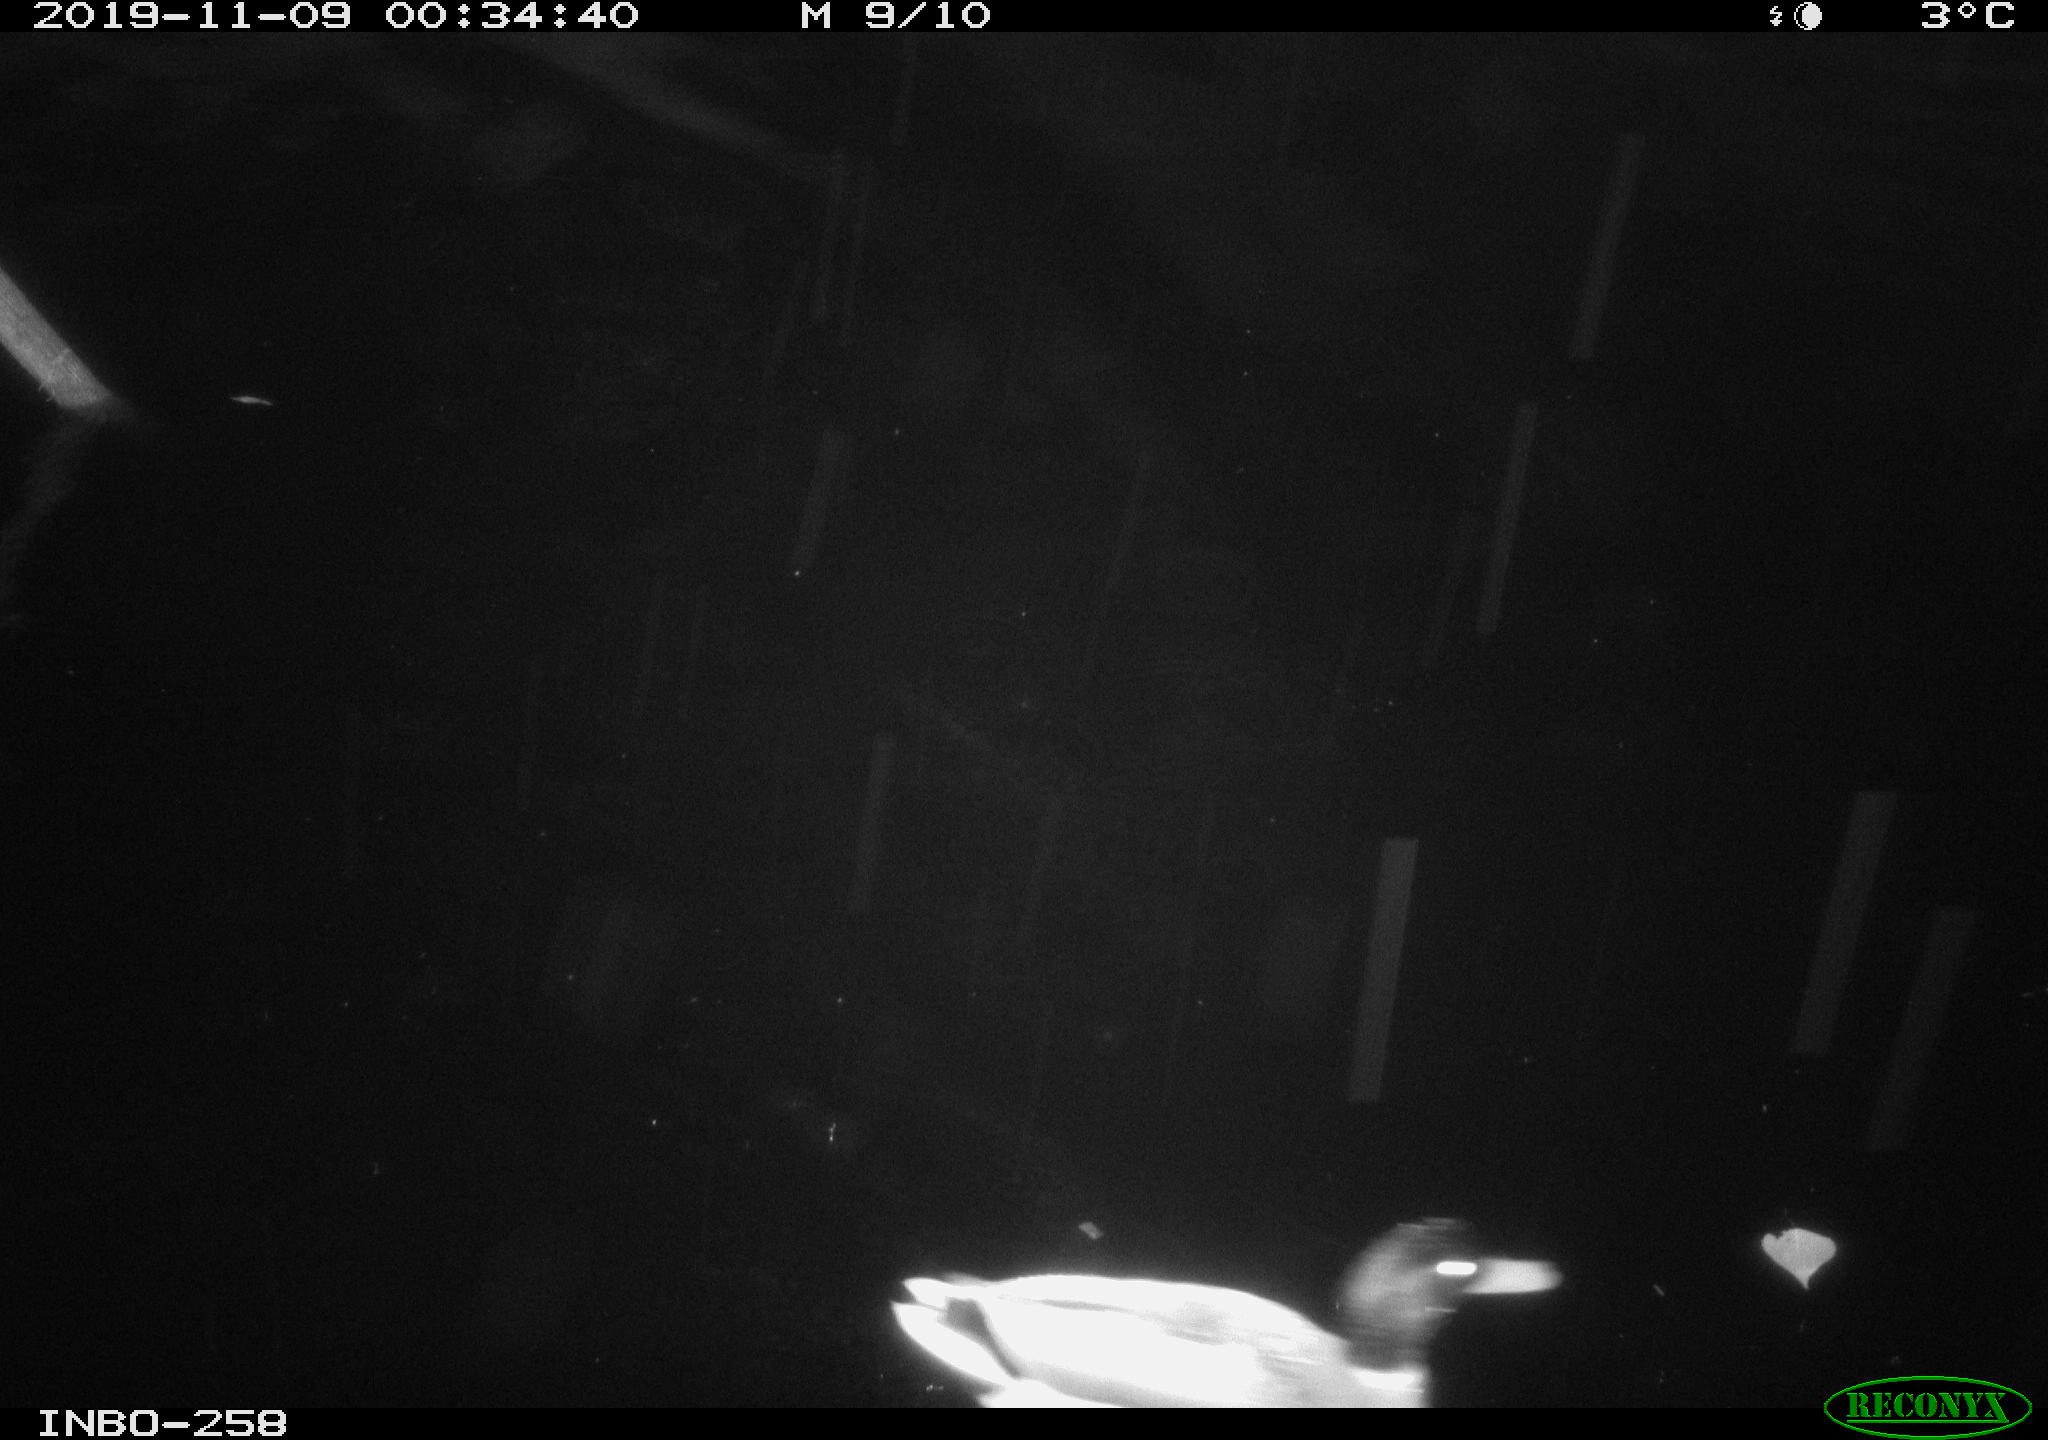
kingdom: Animalia
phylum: Chordata
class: Aves
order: Anseriformes
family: Anatidae
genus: Anas
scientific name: Anas platyrhynchos
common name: Mallard
